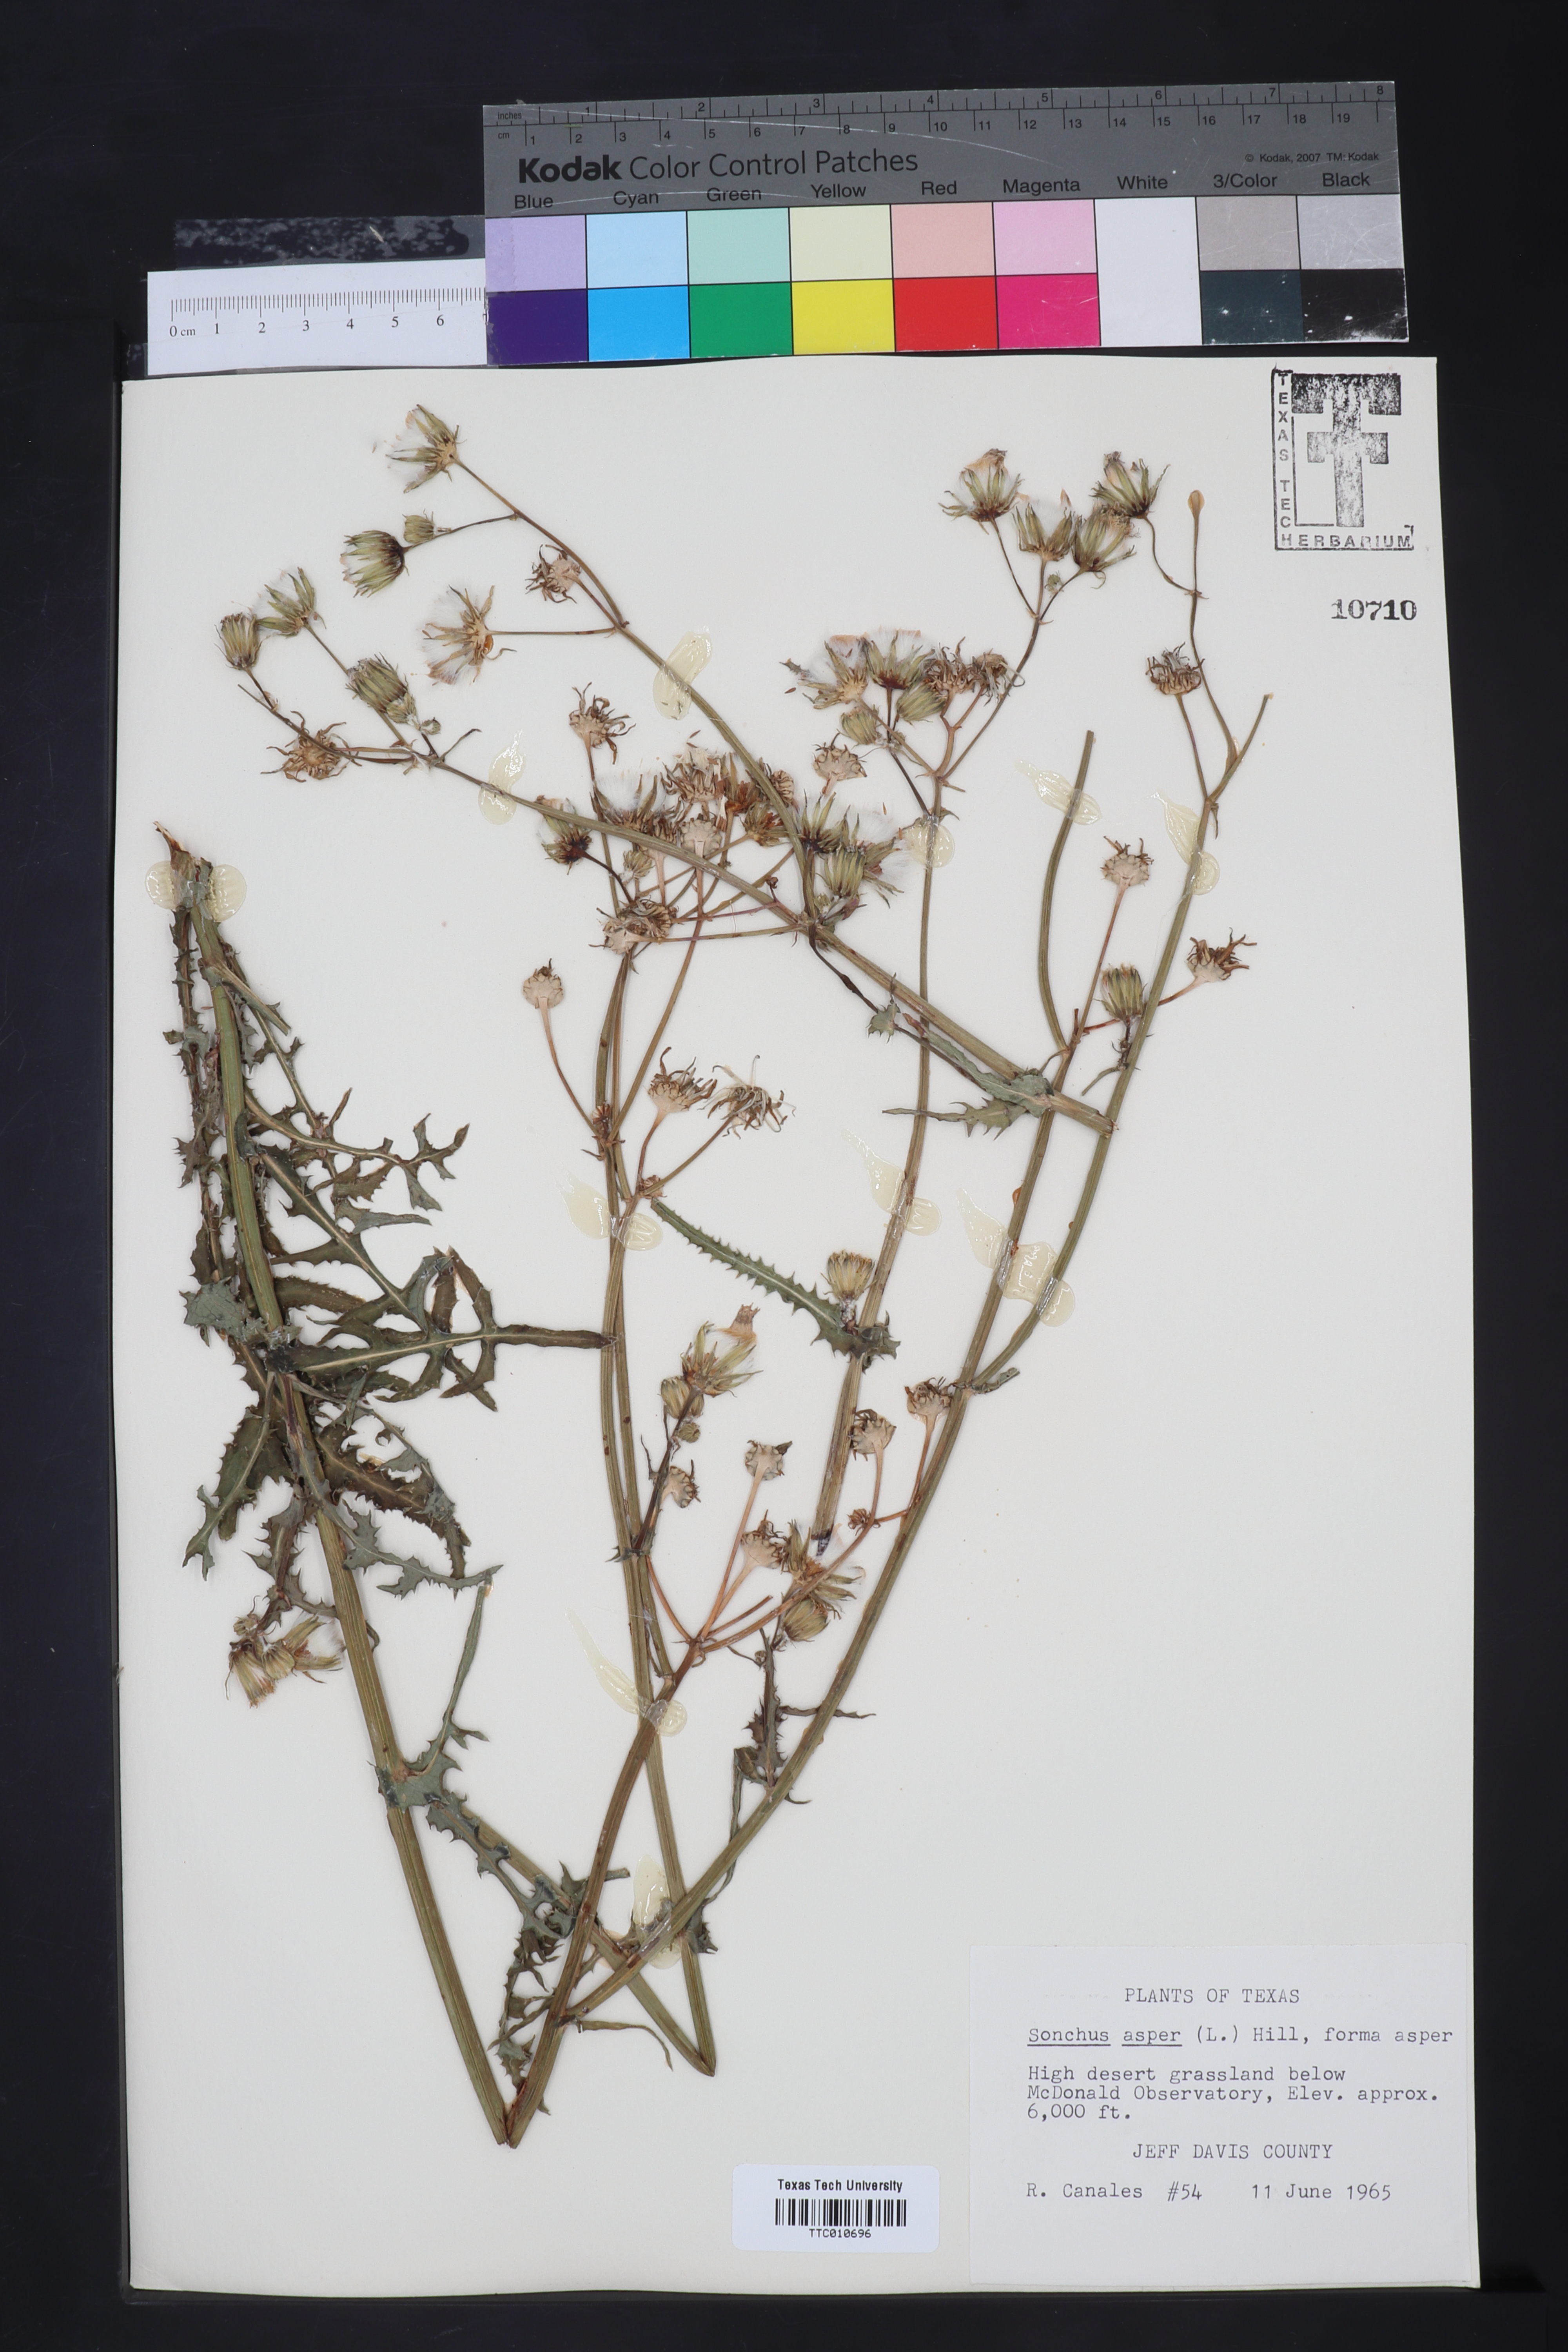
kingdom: Plantae
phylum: Tracheophyta
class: Magnoliopsida
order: Asterales
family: Asteraceae
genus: Sonchus
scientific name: Sonchus asper
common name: Prickly sow-thistle
